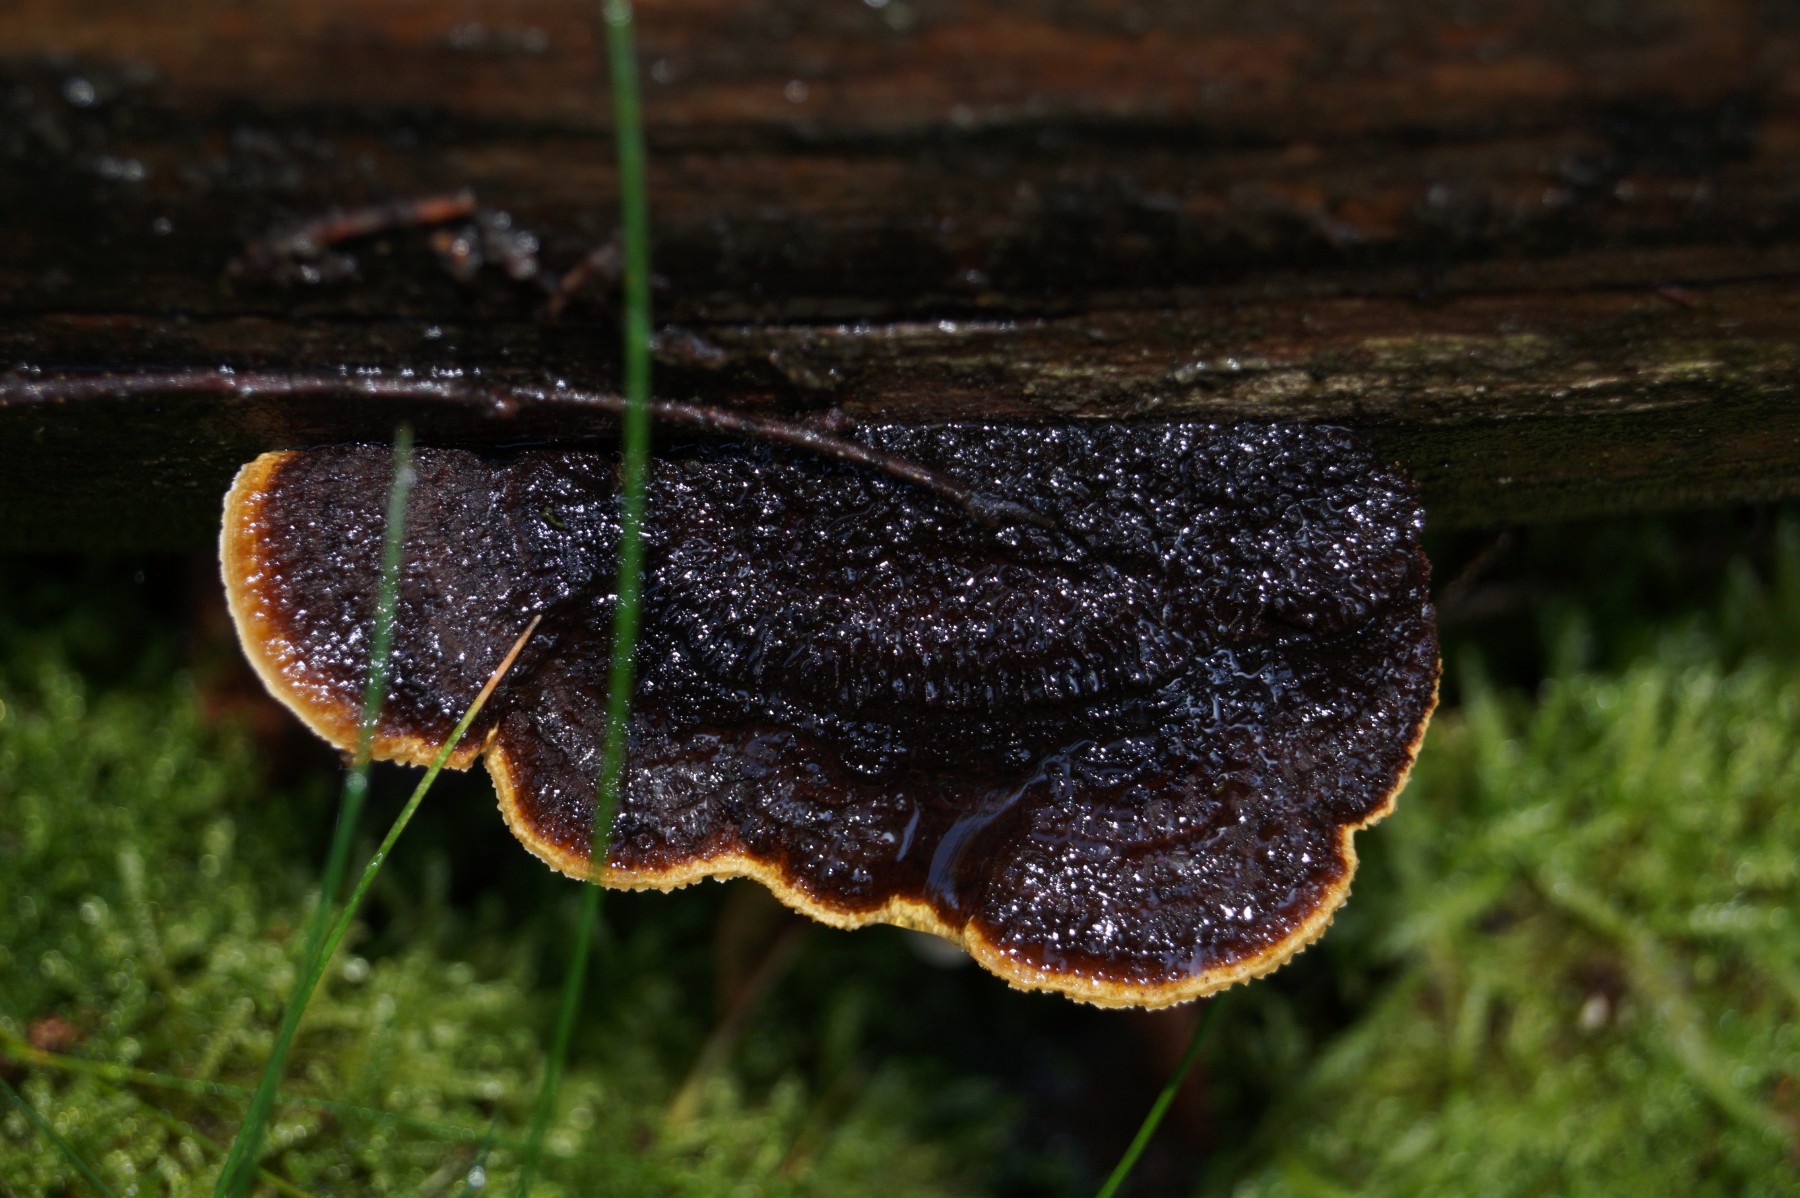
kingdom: Fungi
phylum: Basidiomycota
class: Agaricomycetes
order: Gloeophyllales
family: Gloeophyllaceae
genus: Gloeophyllum
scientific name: Gloeophyllum sepiarium
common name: fyrre-korkhat
